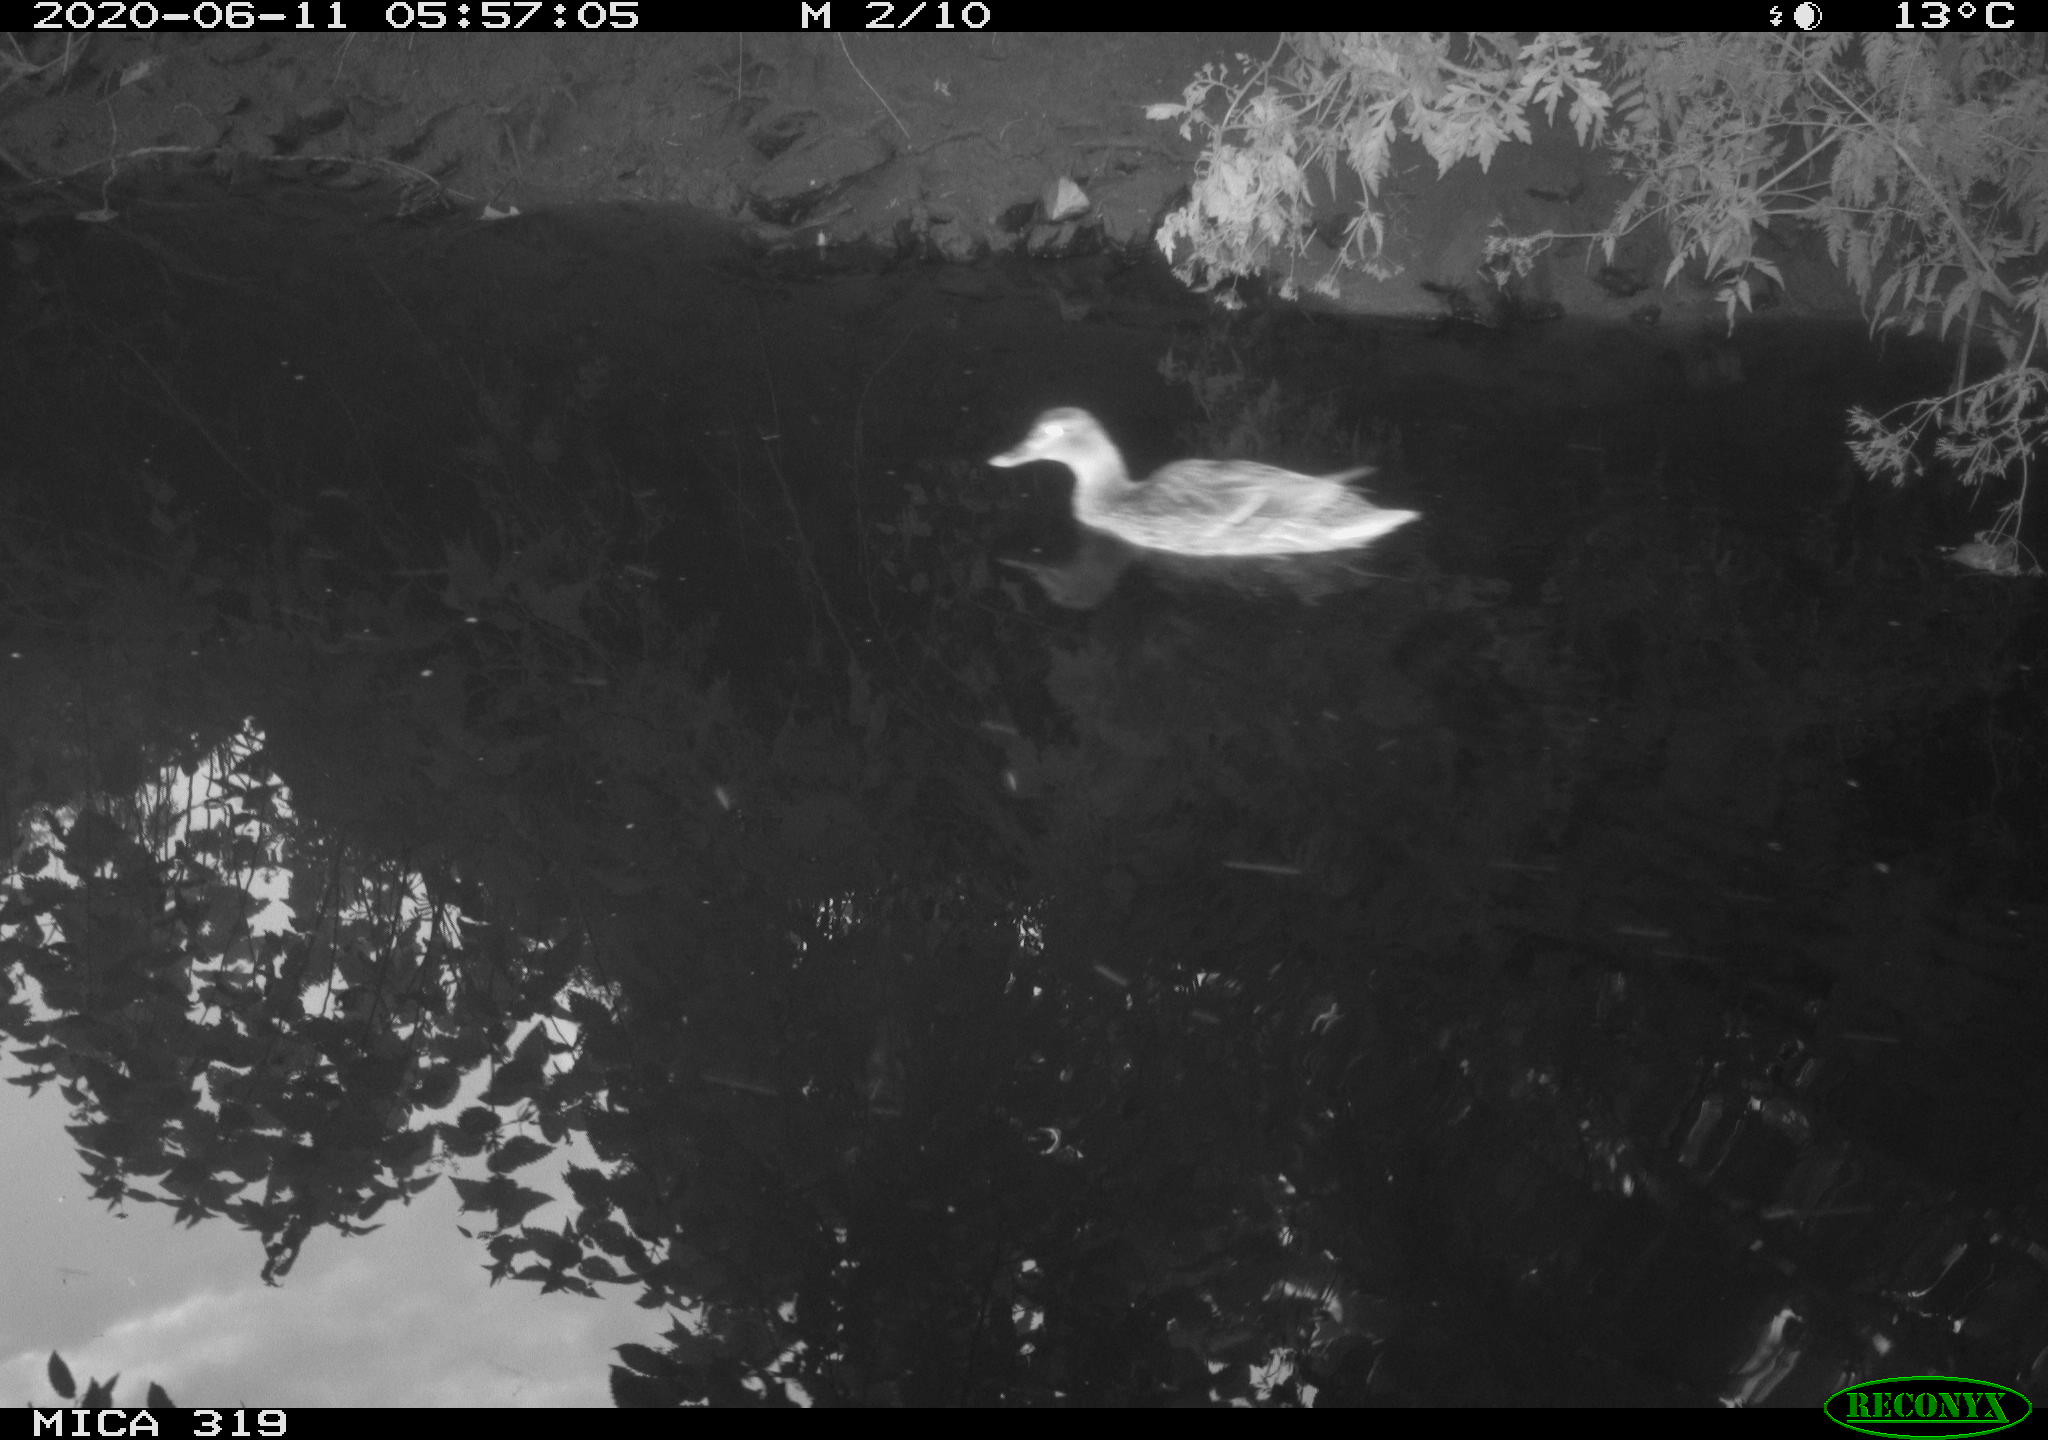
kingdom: Animalia
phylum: Chordata
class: Aves
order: Anseriformes
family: Anatidae
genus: Anas
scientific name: Anas platyrhynchos
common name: Mallard
